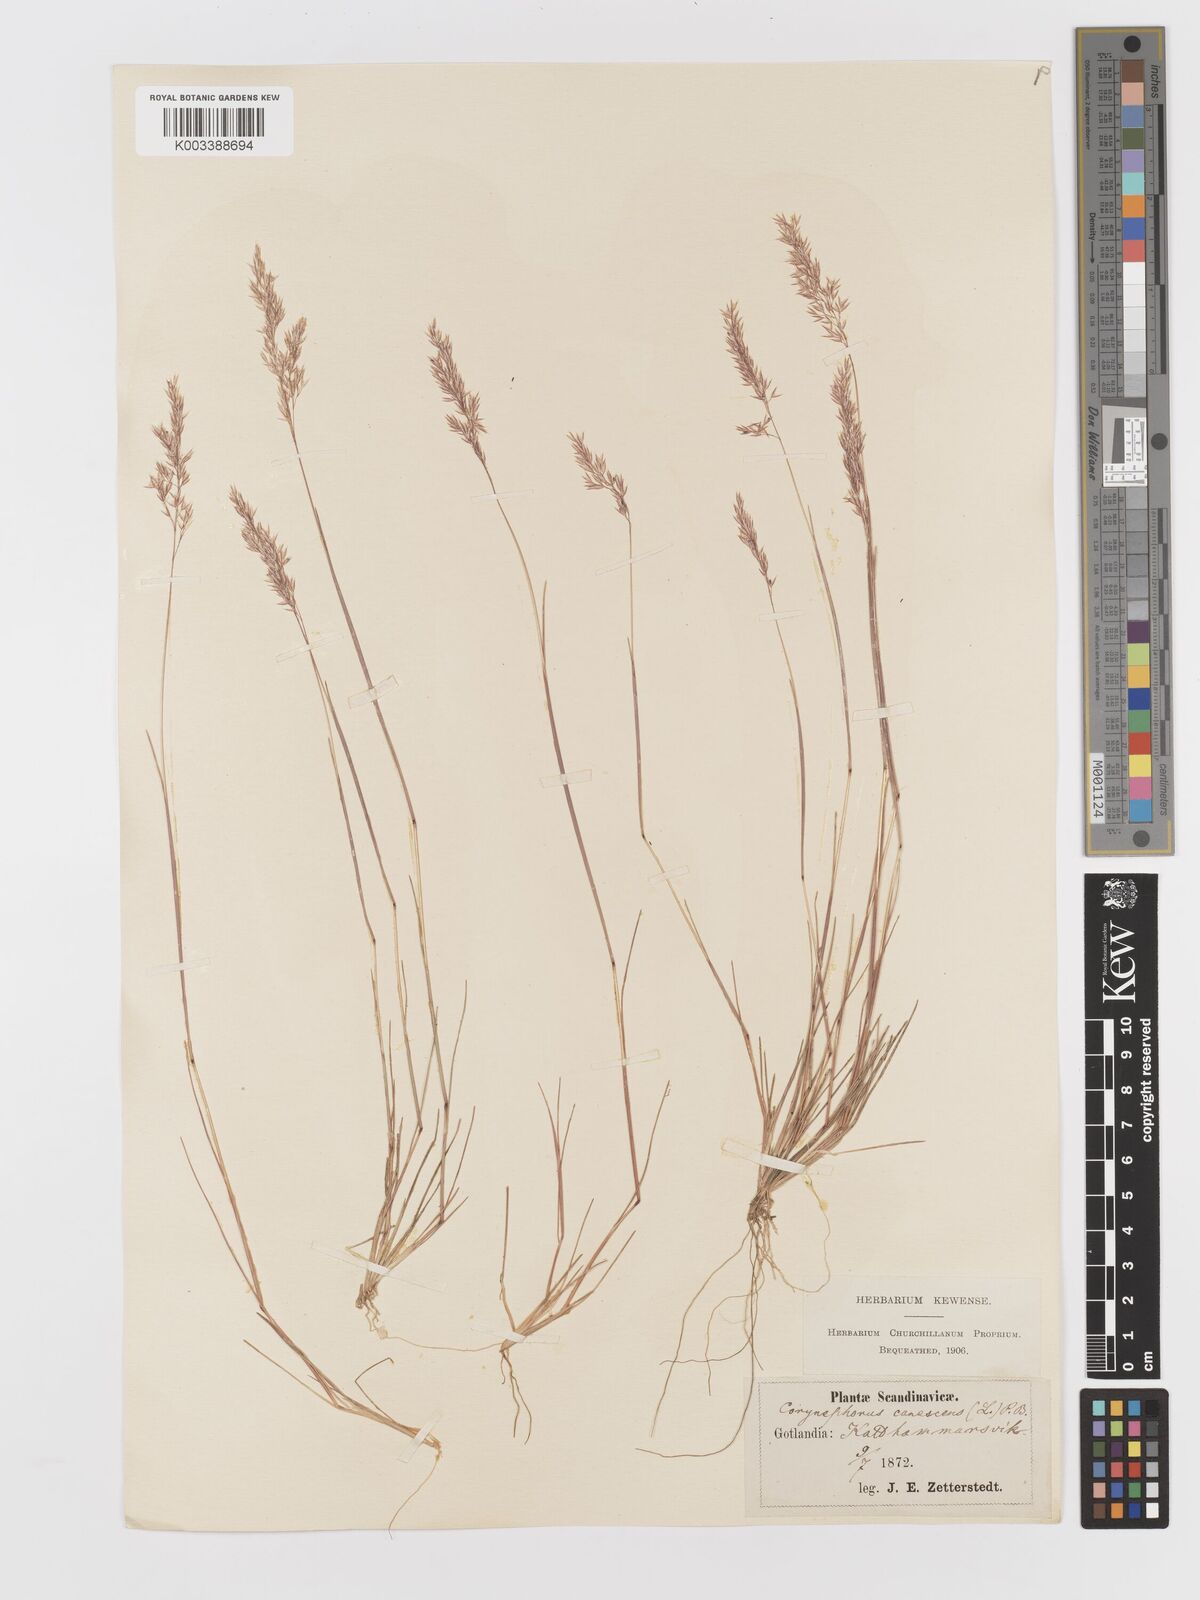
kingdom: Plantae
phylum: Tracheophyta
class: Liliopsida
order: Poales
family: Poaceae
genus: Corynephorus
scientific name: Corynephorus canescens
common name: Grey hair-grass
